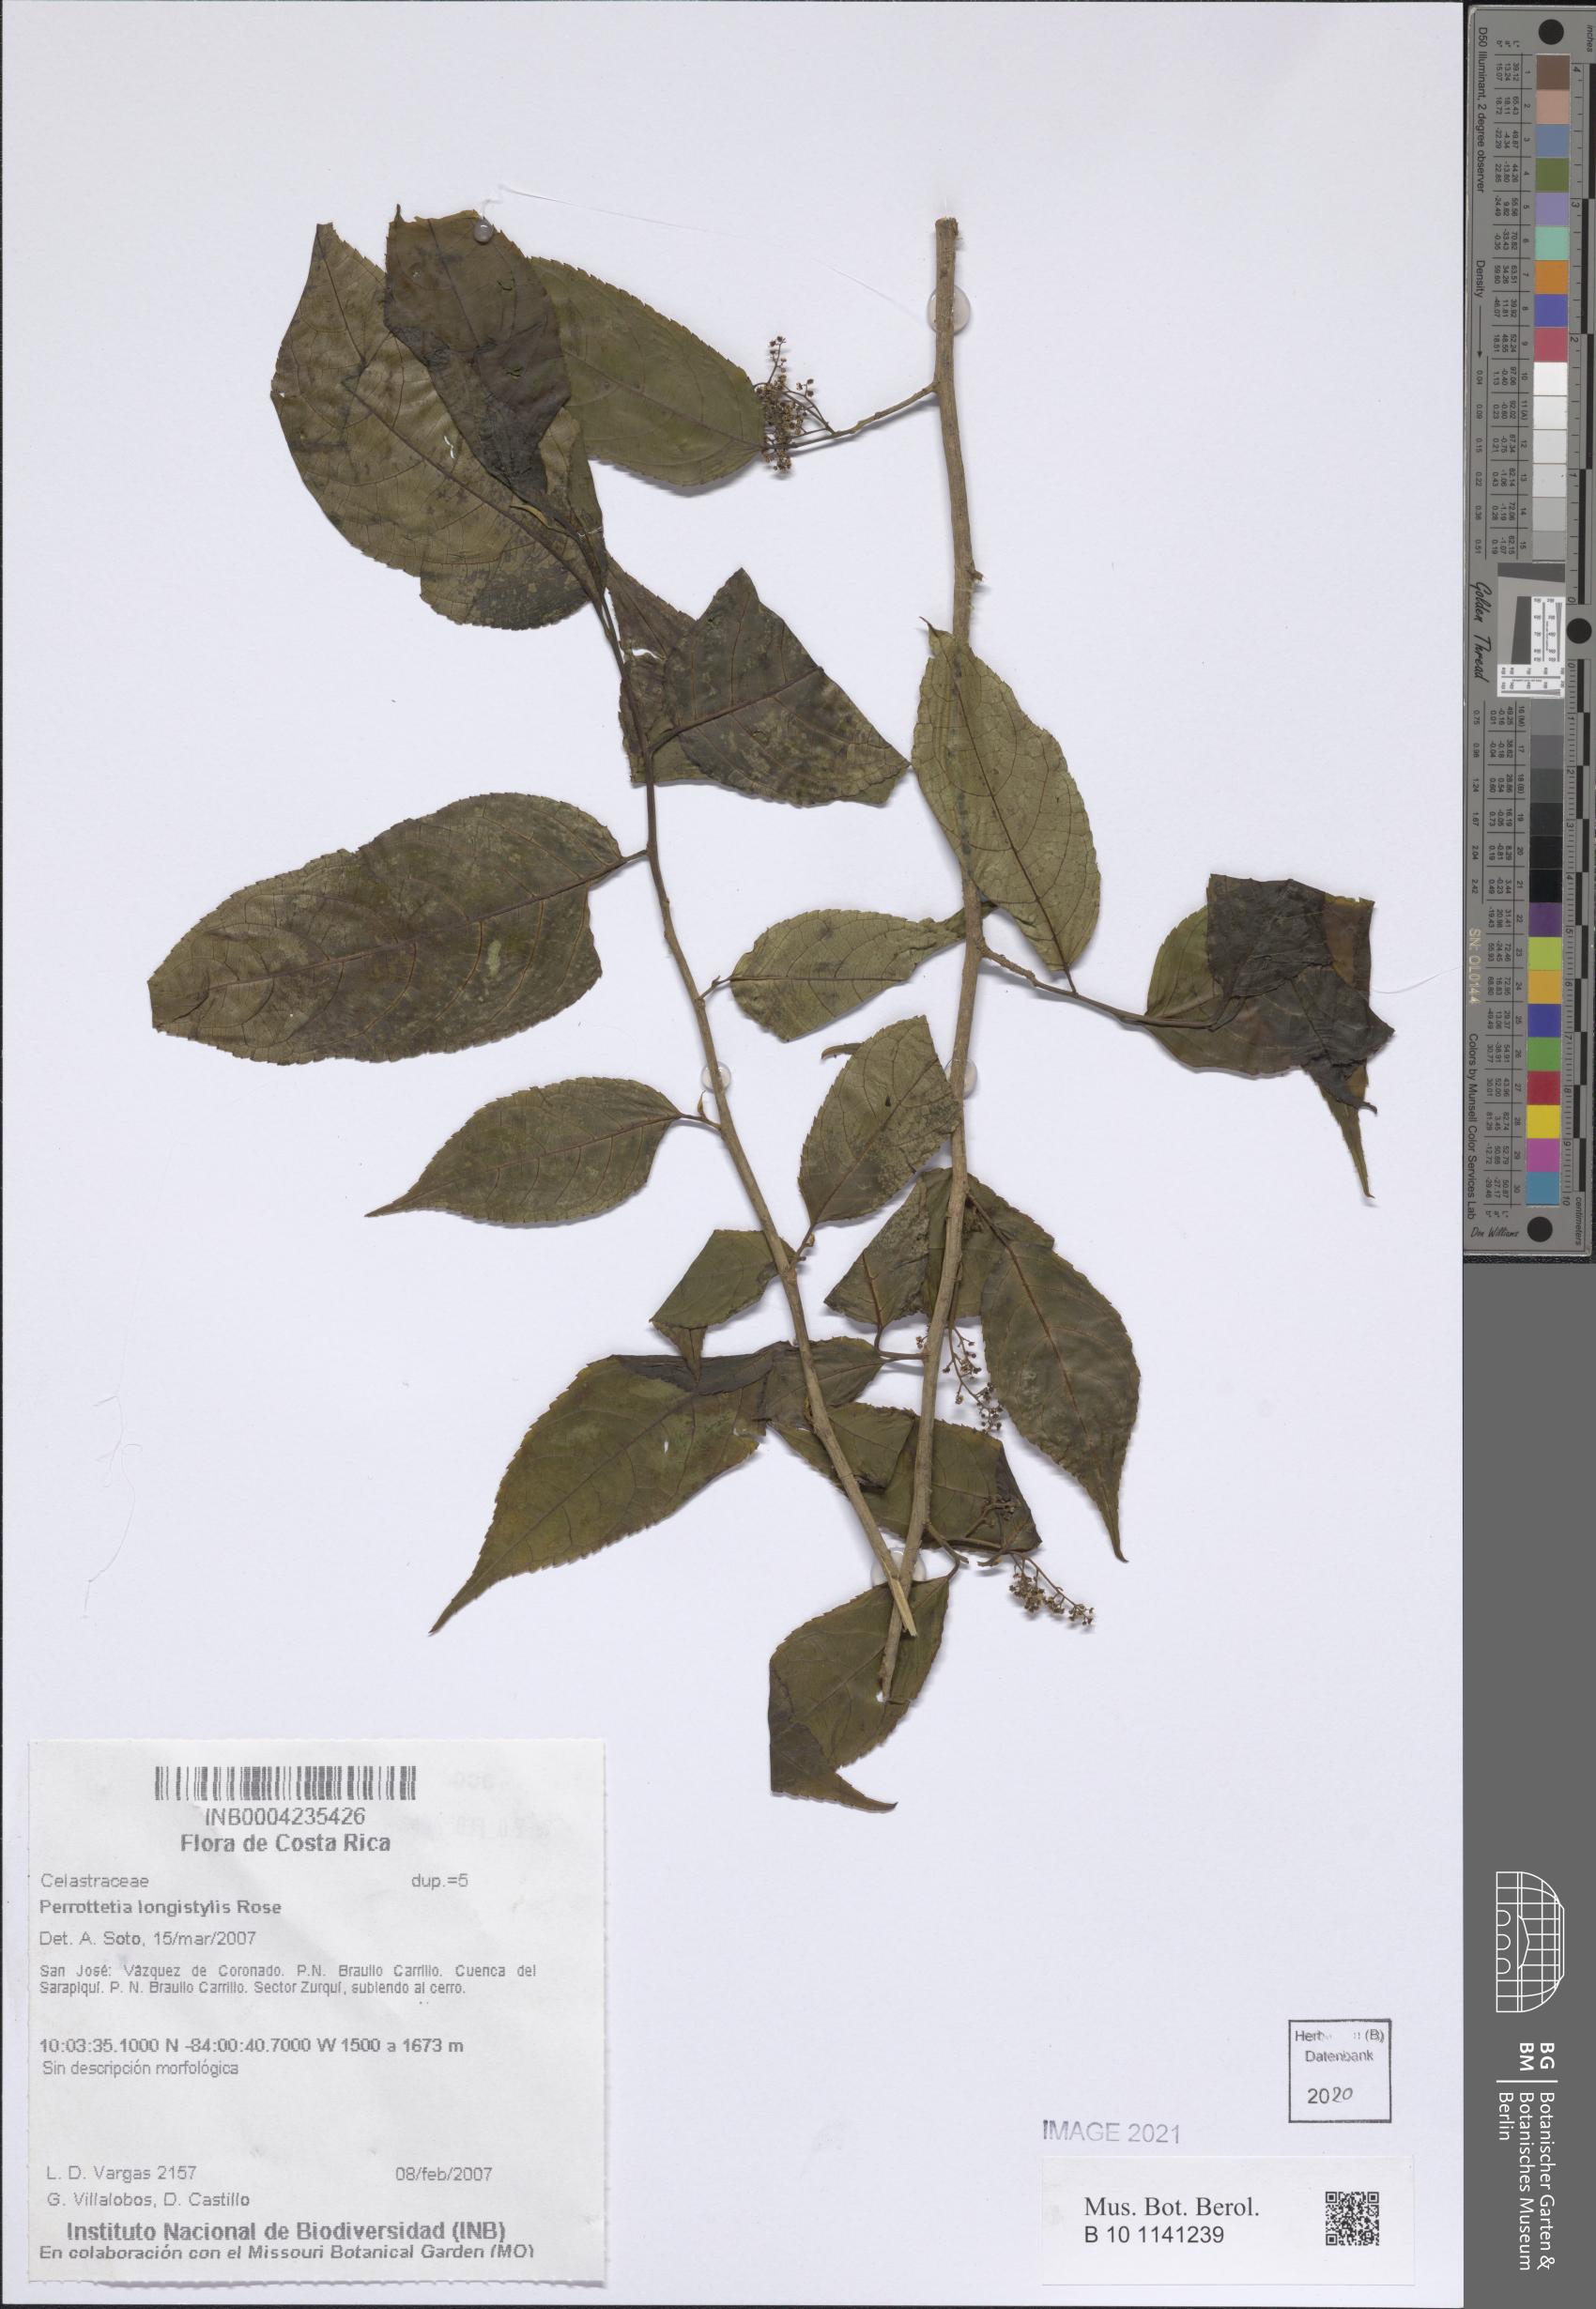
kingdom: Plantae
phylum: Tracheophyta
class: Magnoliopsida
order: Huerteales
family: Dipentodontaceae
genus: Perrottetia
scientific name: Perrottetia longistylis
